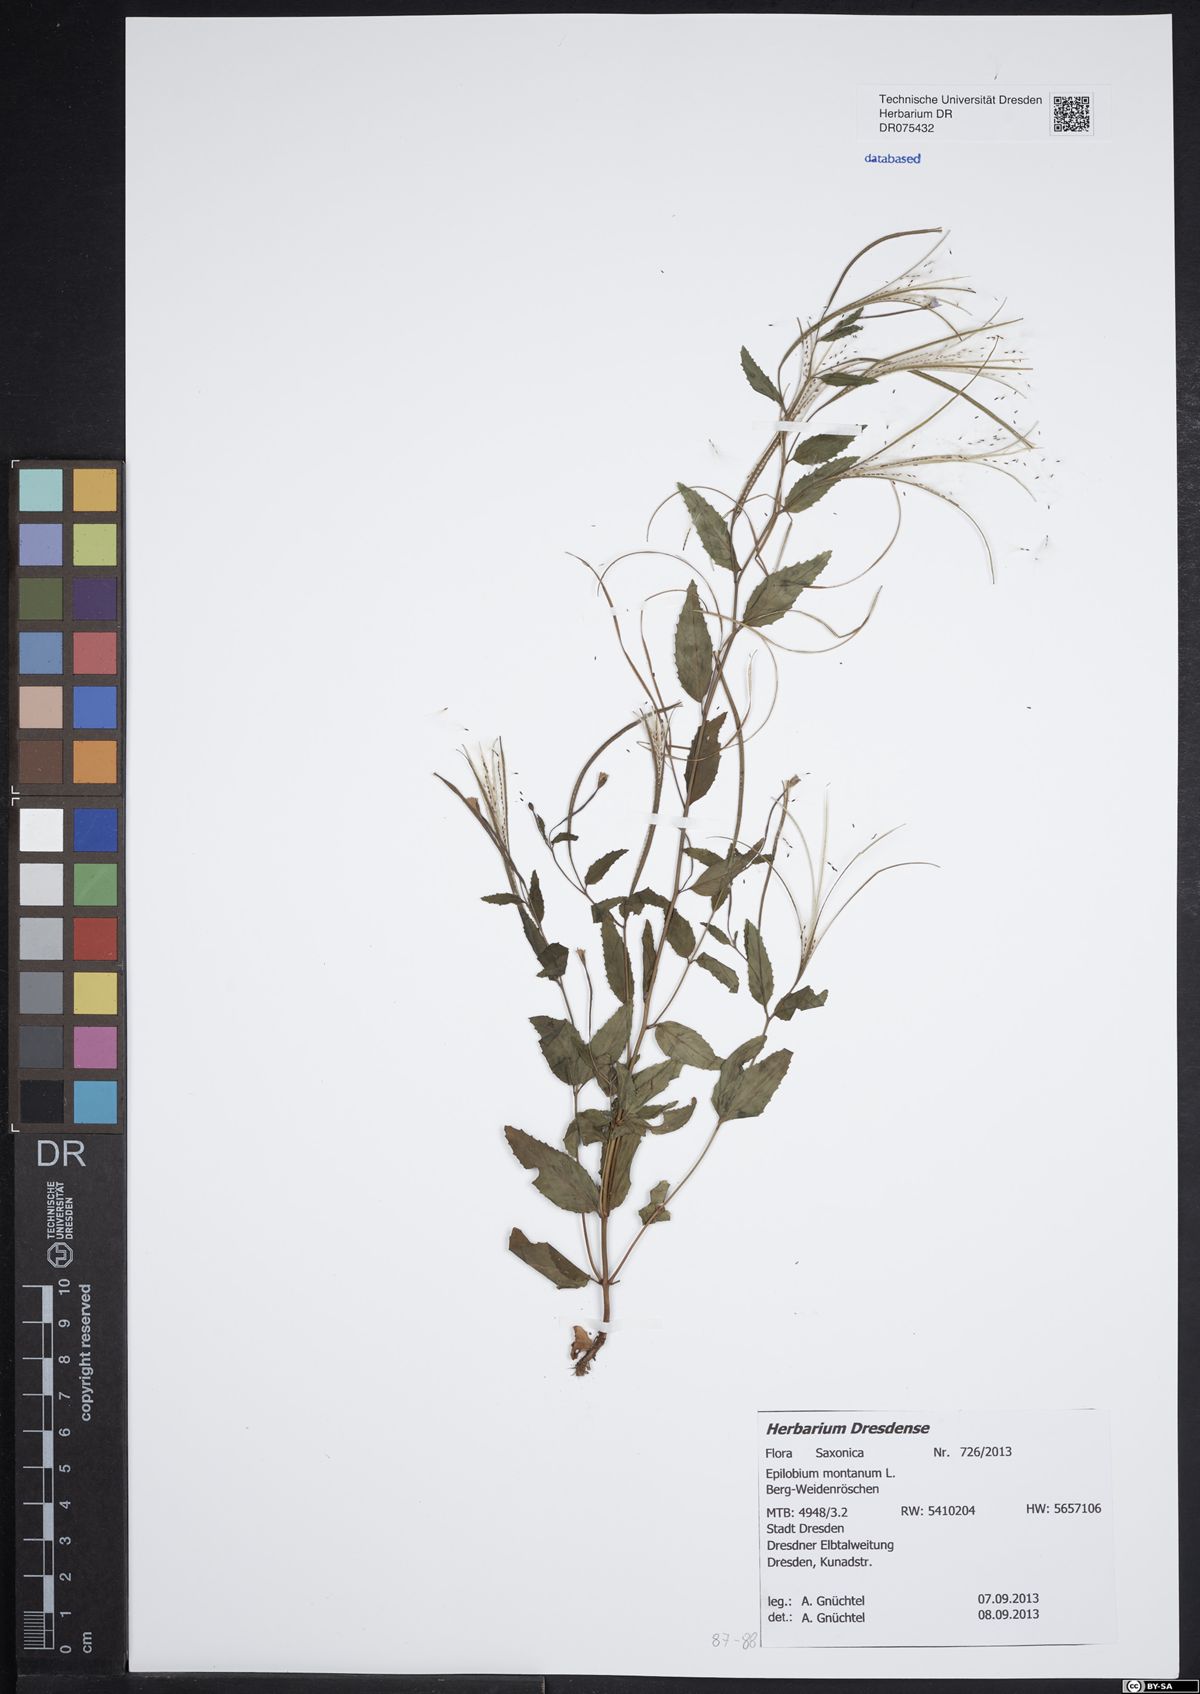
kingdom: Plantae
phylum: Tracheophyta
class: Magnoliopsida
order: Myrtales
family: Onagraceae
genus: Epilobium
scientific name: Epilobium montanum
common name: Broad-leaved willowherb
